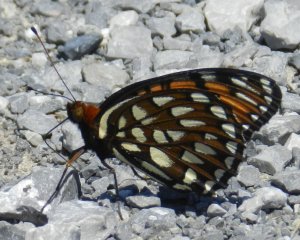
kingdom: Animalia
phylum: Arthropoda
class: Insecta
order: Lepidoptera
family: Nymphalidae
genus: Speyeria
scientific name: Speyeria idalia
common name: Regal Fritillary
